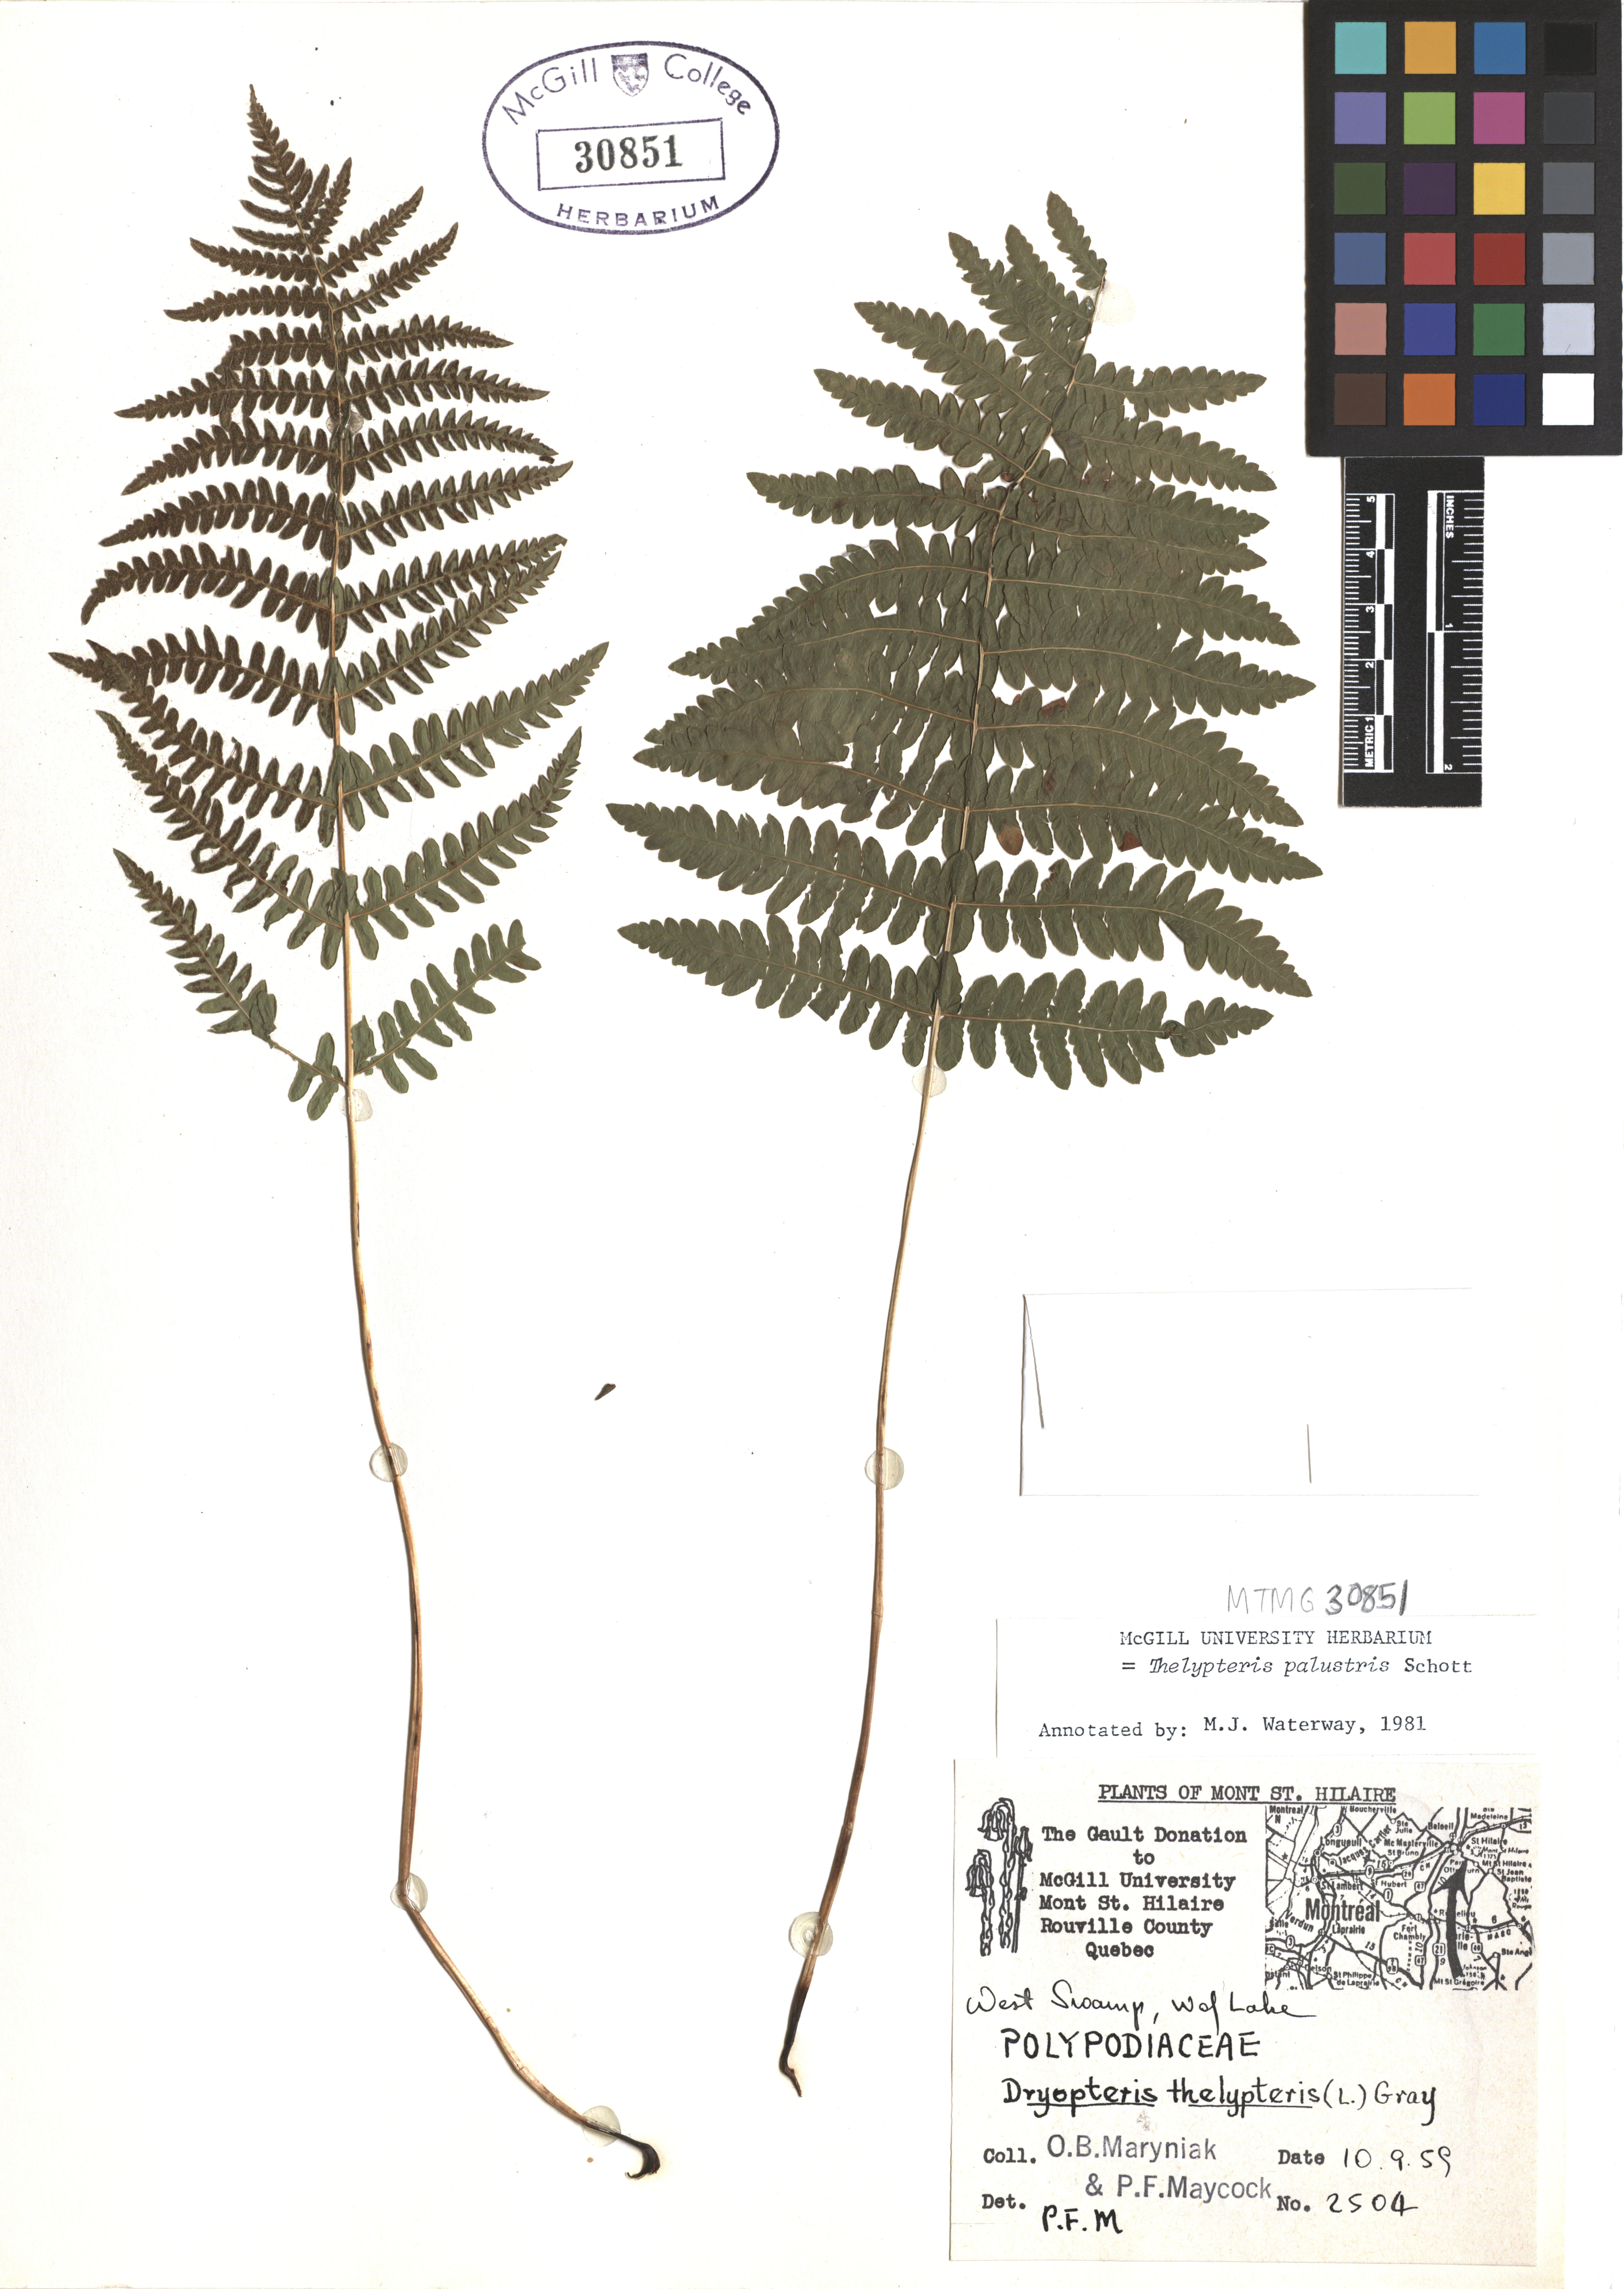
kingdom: Plantae
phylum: Tracheophyta
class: Polypodiopsida
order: Polypodiales
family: Thelypteridaceae
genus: Thelypteris
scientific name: Thelypteris palustris
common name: Marsh fern
